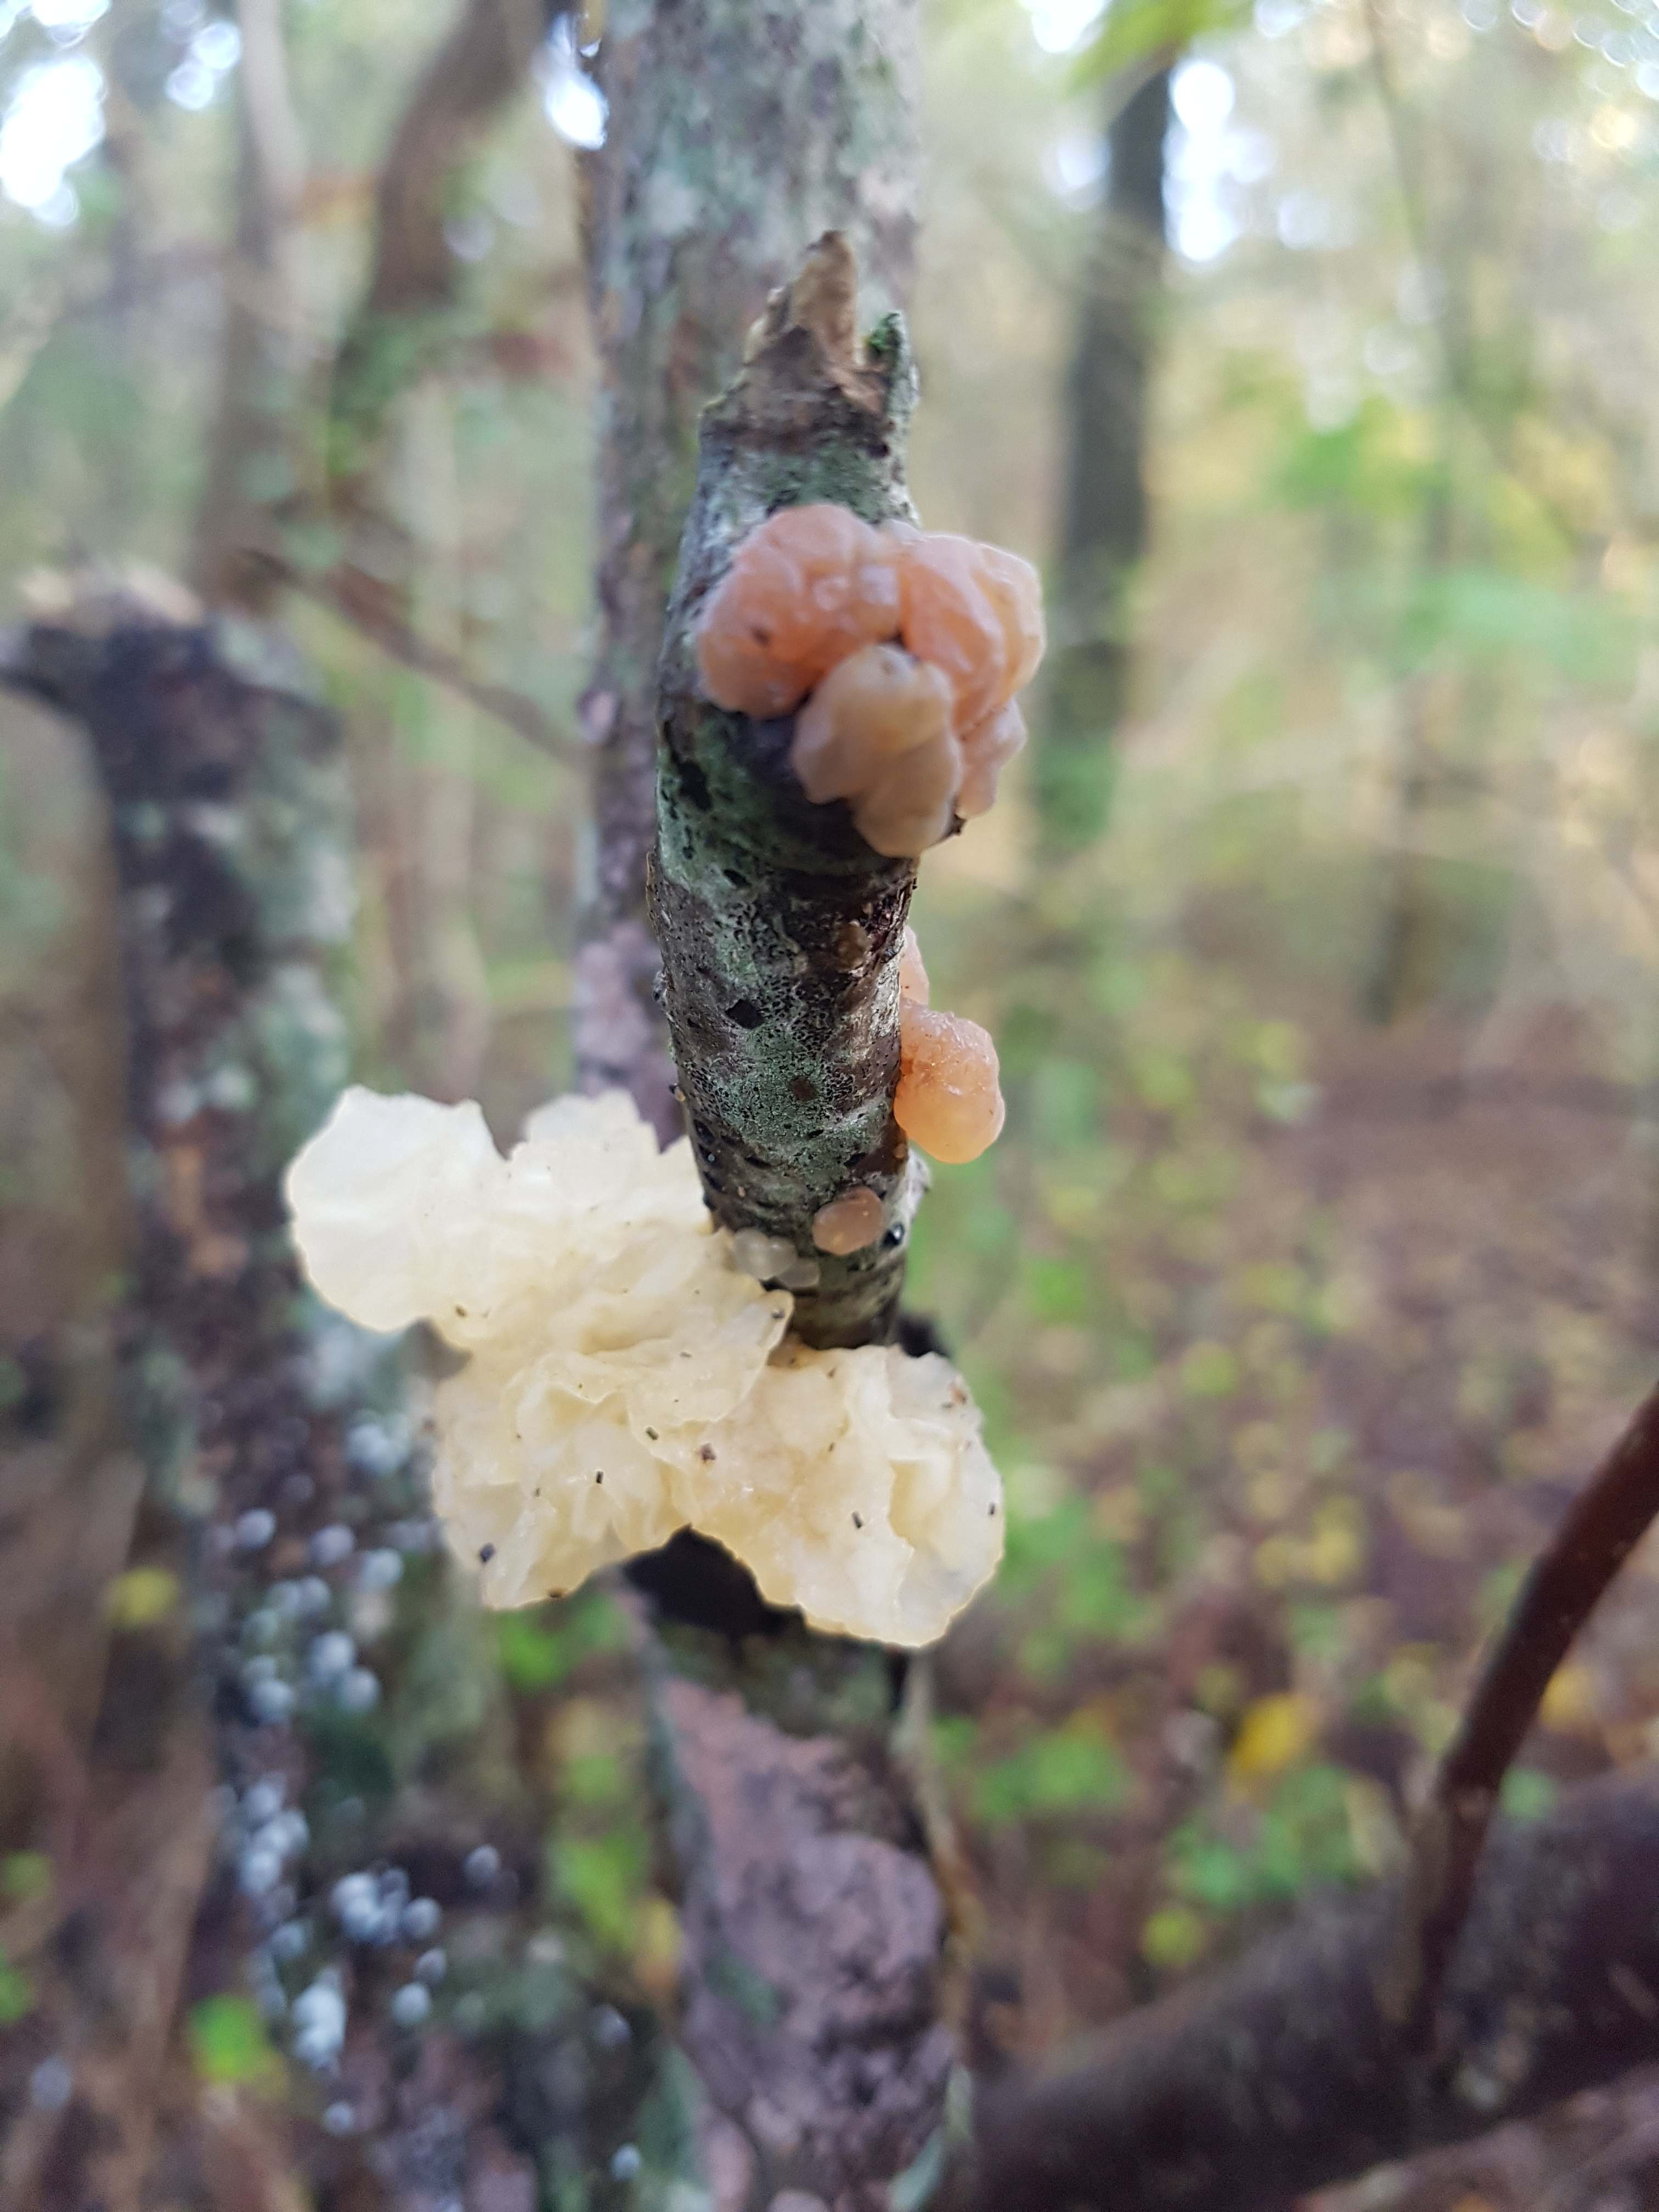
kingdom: Fungi
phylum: Basidiomycota
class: Agaricomycetes
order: Auriculariales
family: Hyaloriaceae
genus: Myxarium
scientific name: Myxarium
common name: bævretop
